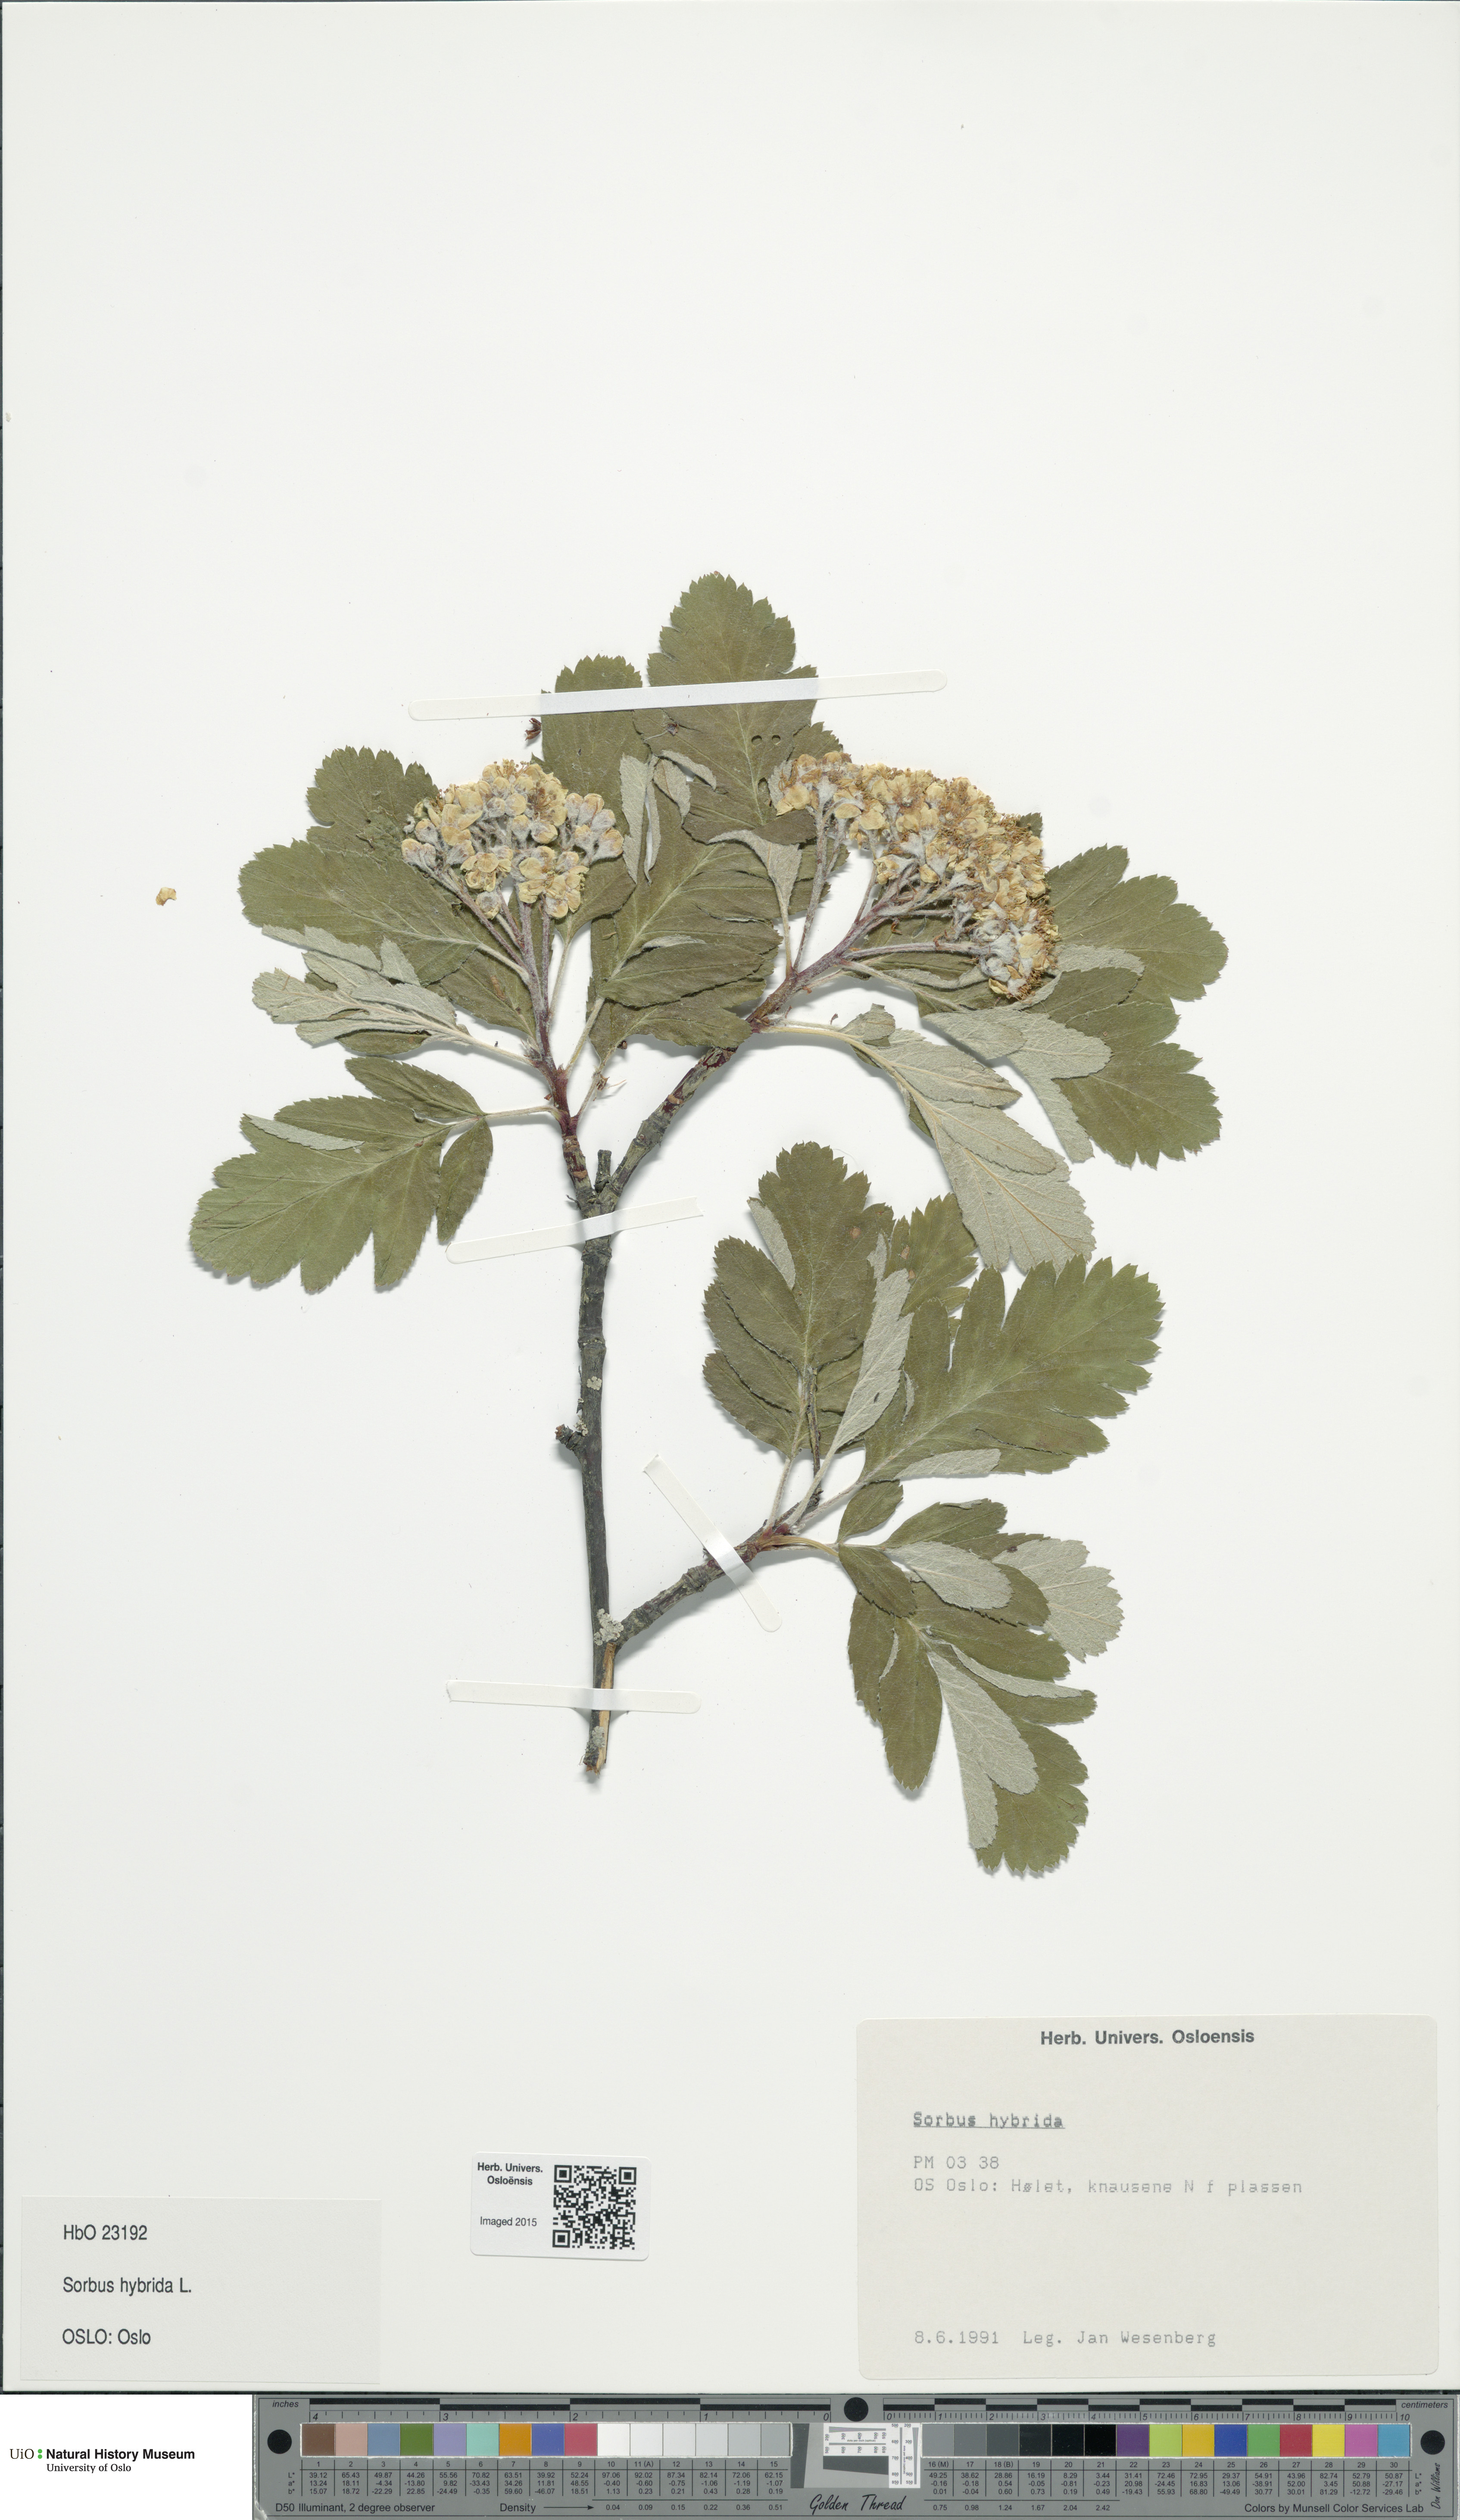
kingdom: Plantae
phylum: Tracheophyta
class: Magnoliopsida
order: Rosales
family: Rosaceae
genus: Hedlundia
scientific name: Hedlundia hybrida
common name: Swedish service-tree
